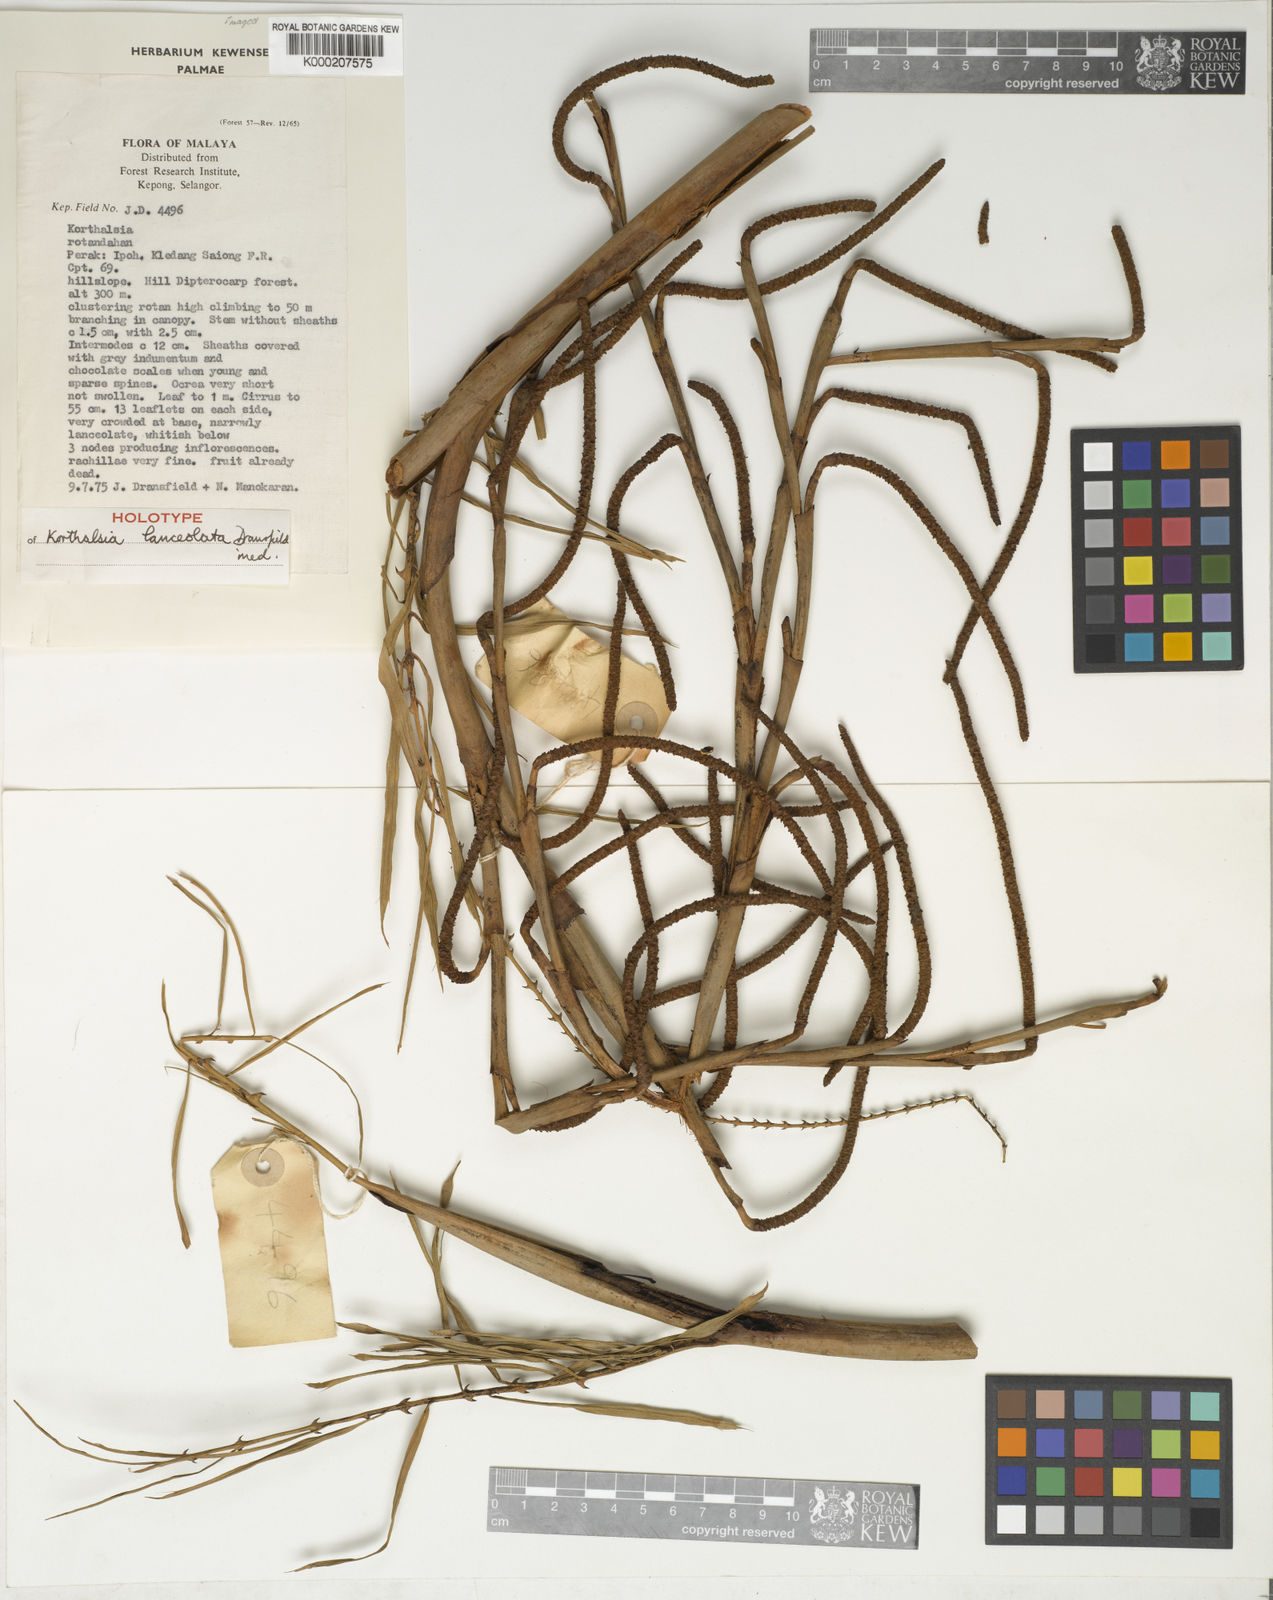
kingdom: Plantae
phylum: Tracheophyta
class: Liliopsida
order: Arecales
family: Arecaceae
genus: Korthalsia
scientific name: Korthalsia lanceolata
